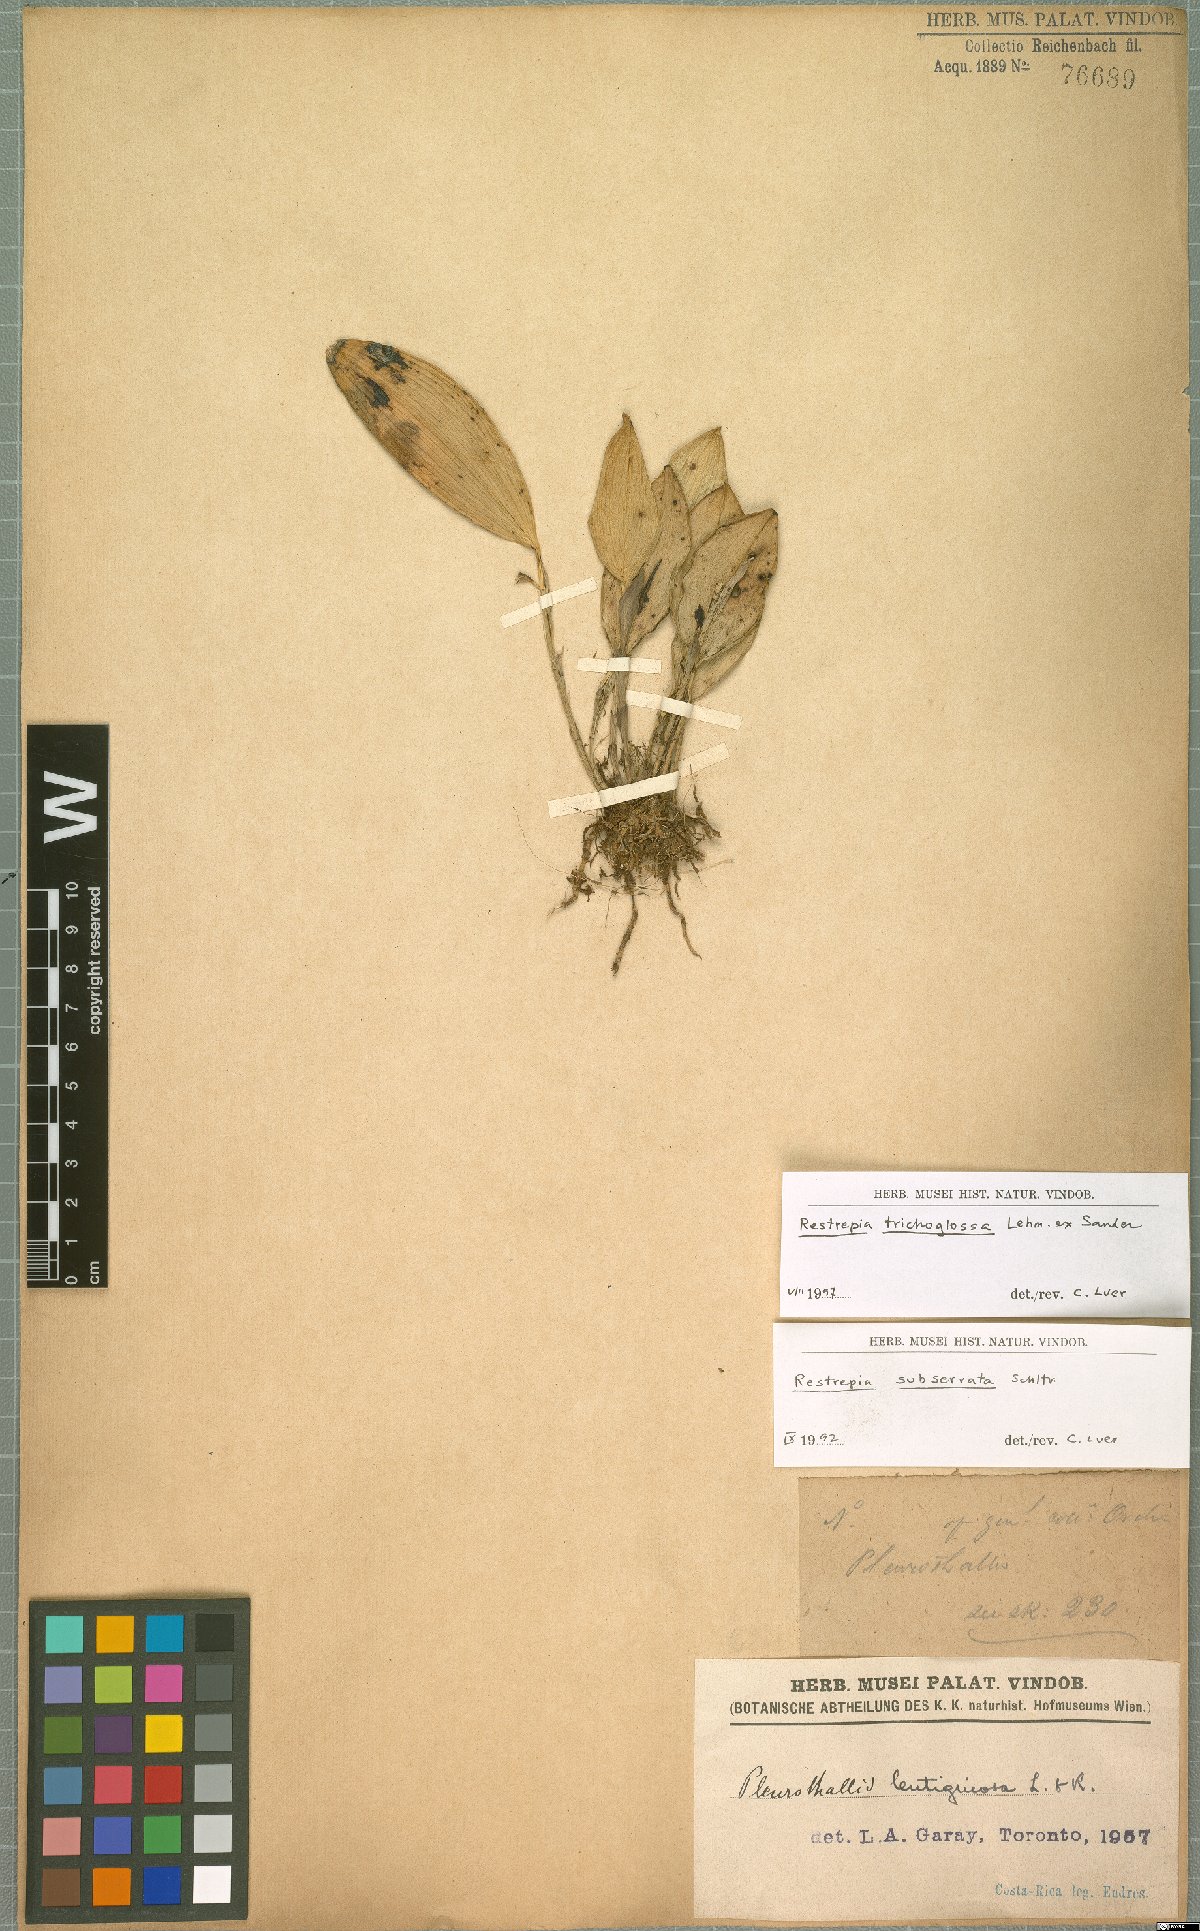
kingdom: Plantae
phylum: Tracheophyta
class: Liliopsida
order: Asparagales
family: Orchidaceae
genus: Restrepia
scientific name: Restrepia trichoglossa
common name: Hairy tongued restrepia
